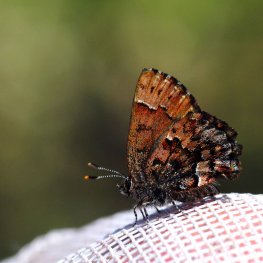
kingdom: Animalia
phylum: Arthropoda
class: Insecta
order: Lepidoptera
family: Lycaenidae
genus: Incisalia
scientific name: Incisalia lanoraieensis
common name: Bog Elfin
